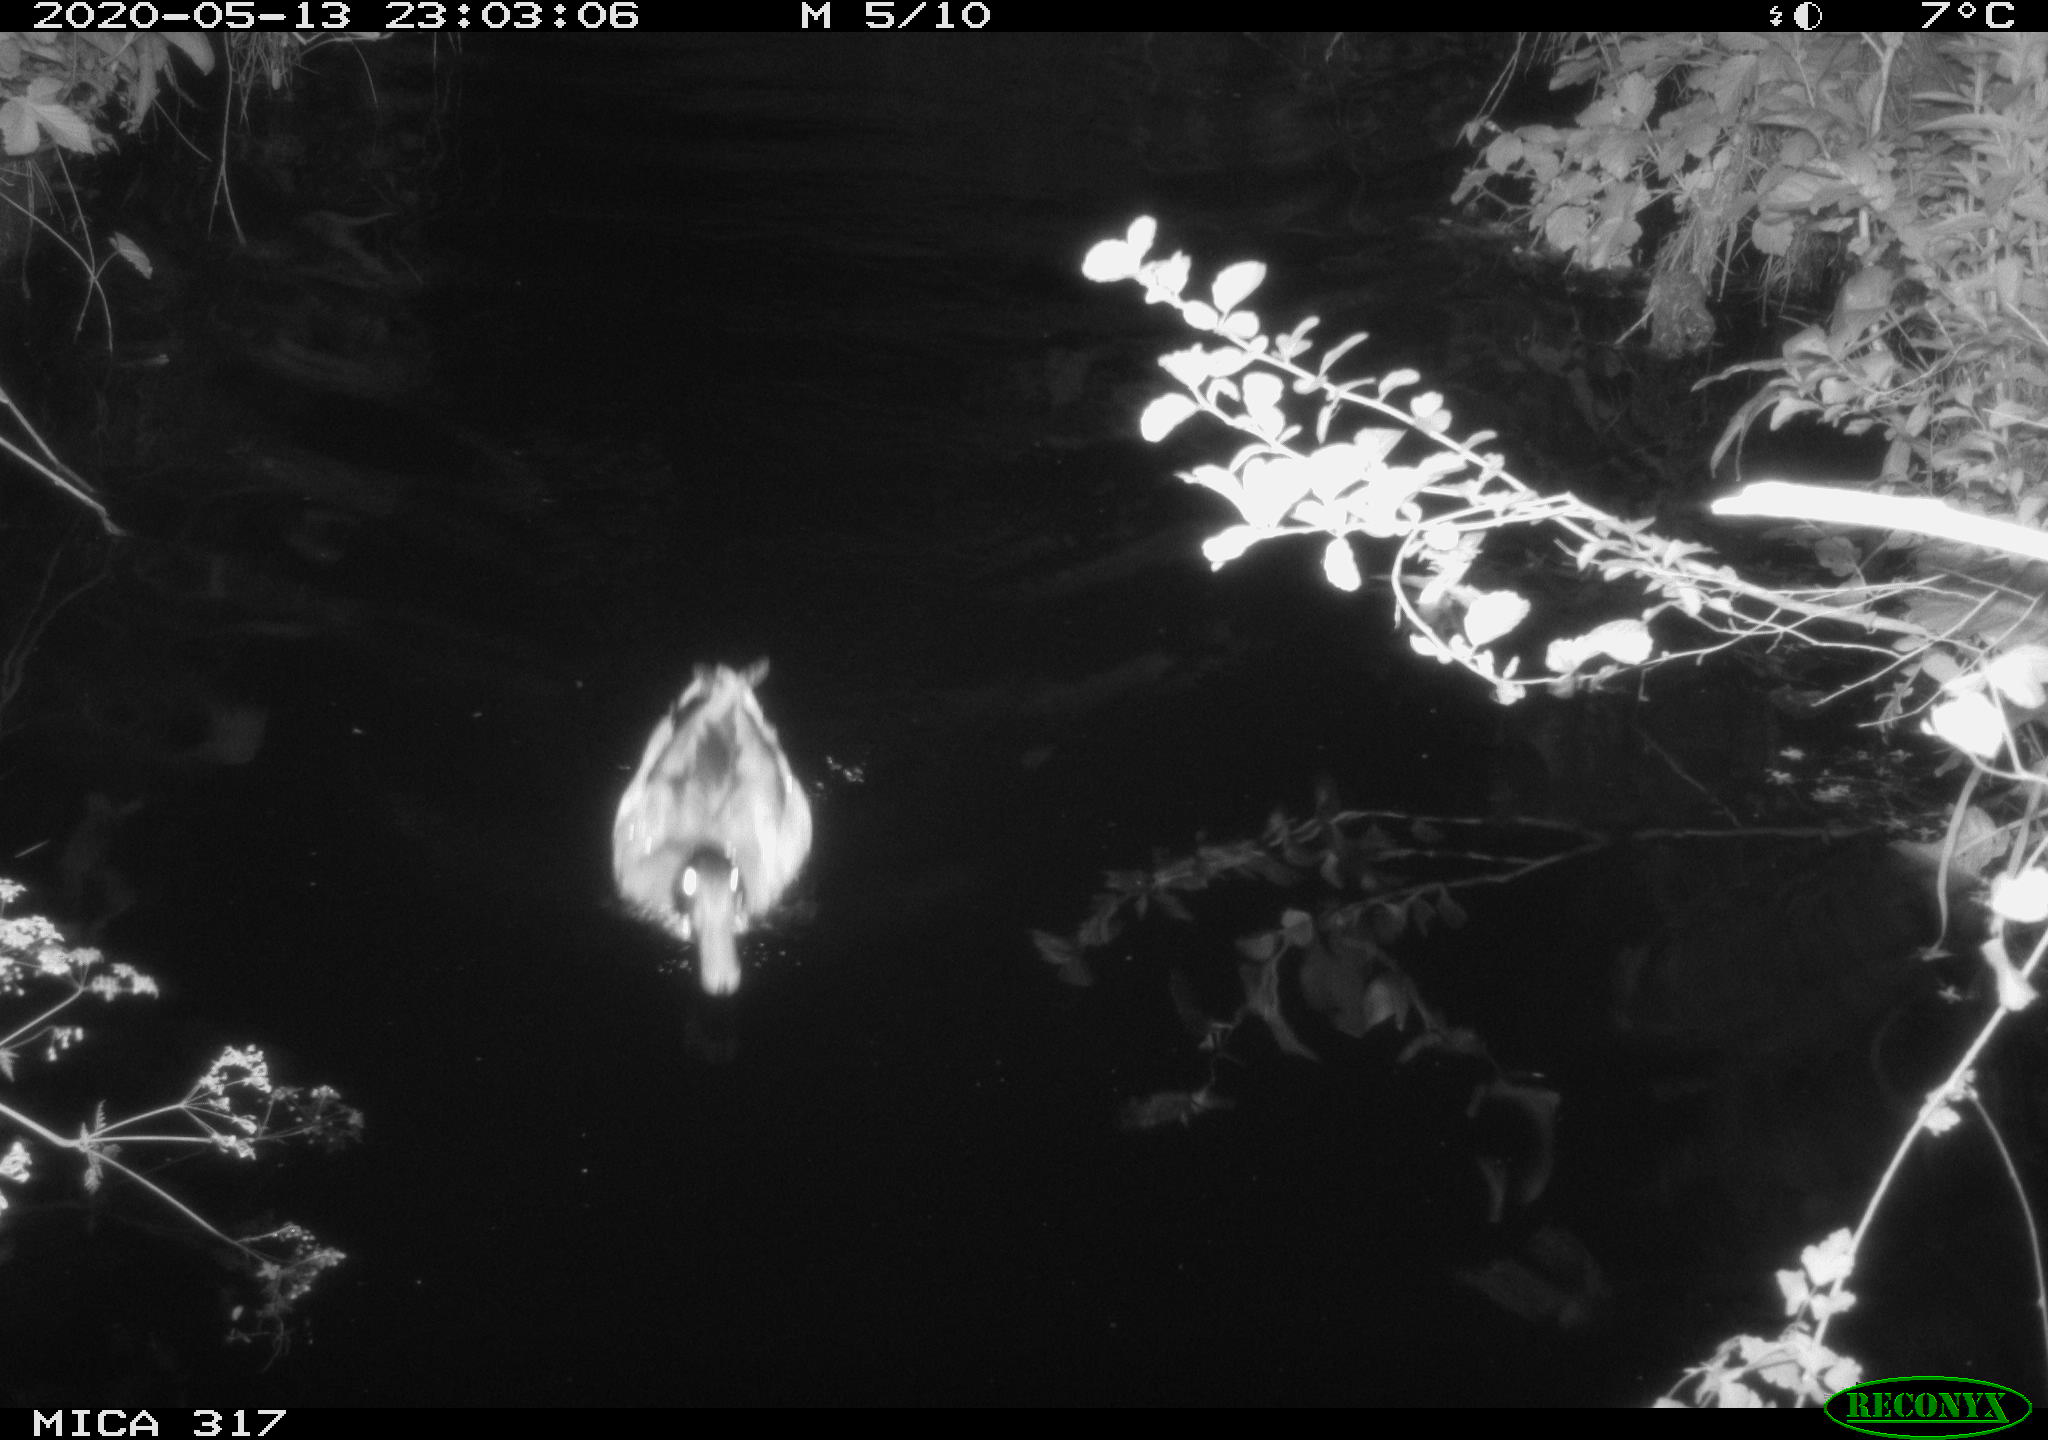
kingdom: Animalia
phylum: Chordata
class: Aves
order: Anseriformes
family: Anatidae
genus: Anas
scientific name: Anas platyrhynchos
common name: Mallard
